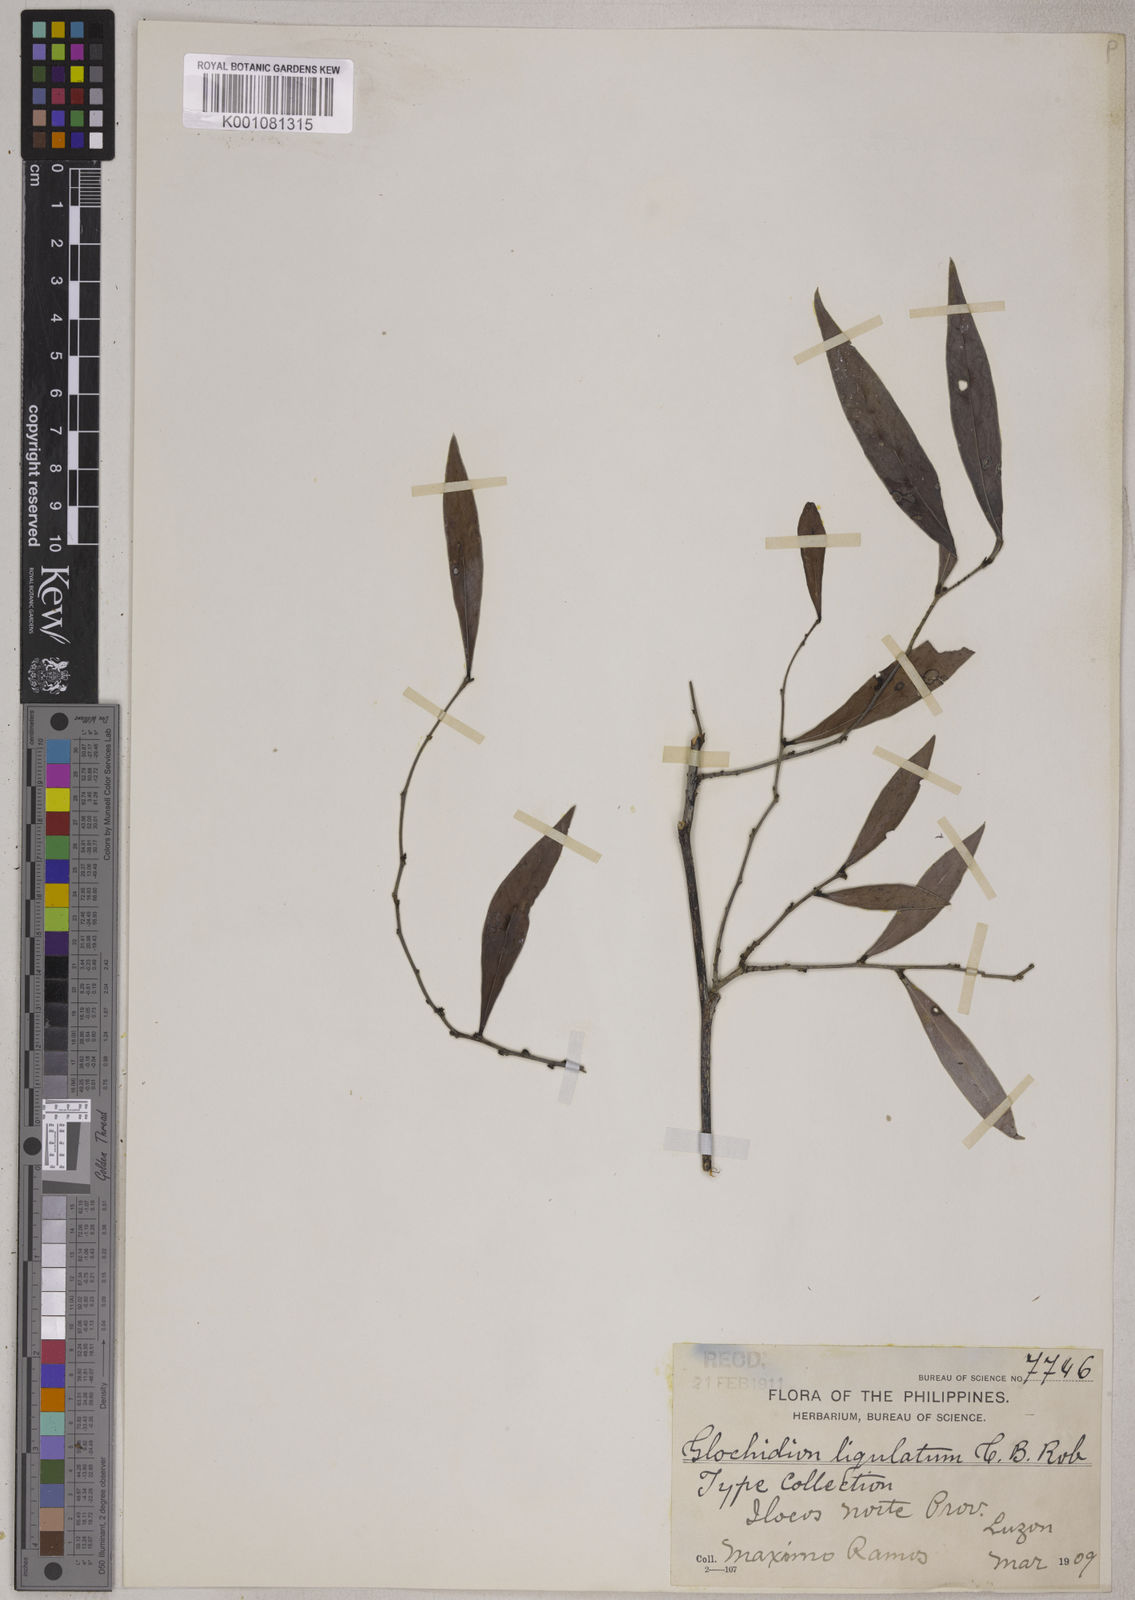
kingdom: Plantae
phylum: Tracheophyta
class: Magnoliopsida
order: Malpighiales
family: Phyllanthaceae
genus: Glochidion
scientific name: Glochidion ligulatum
